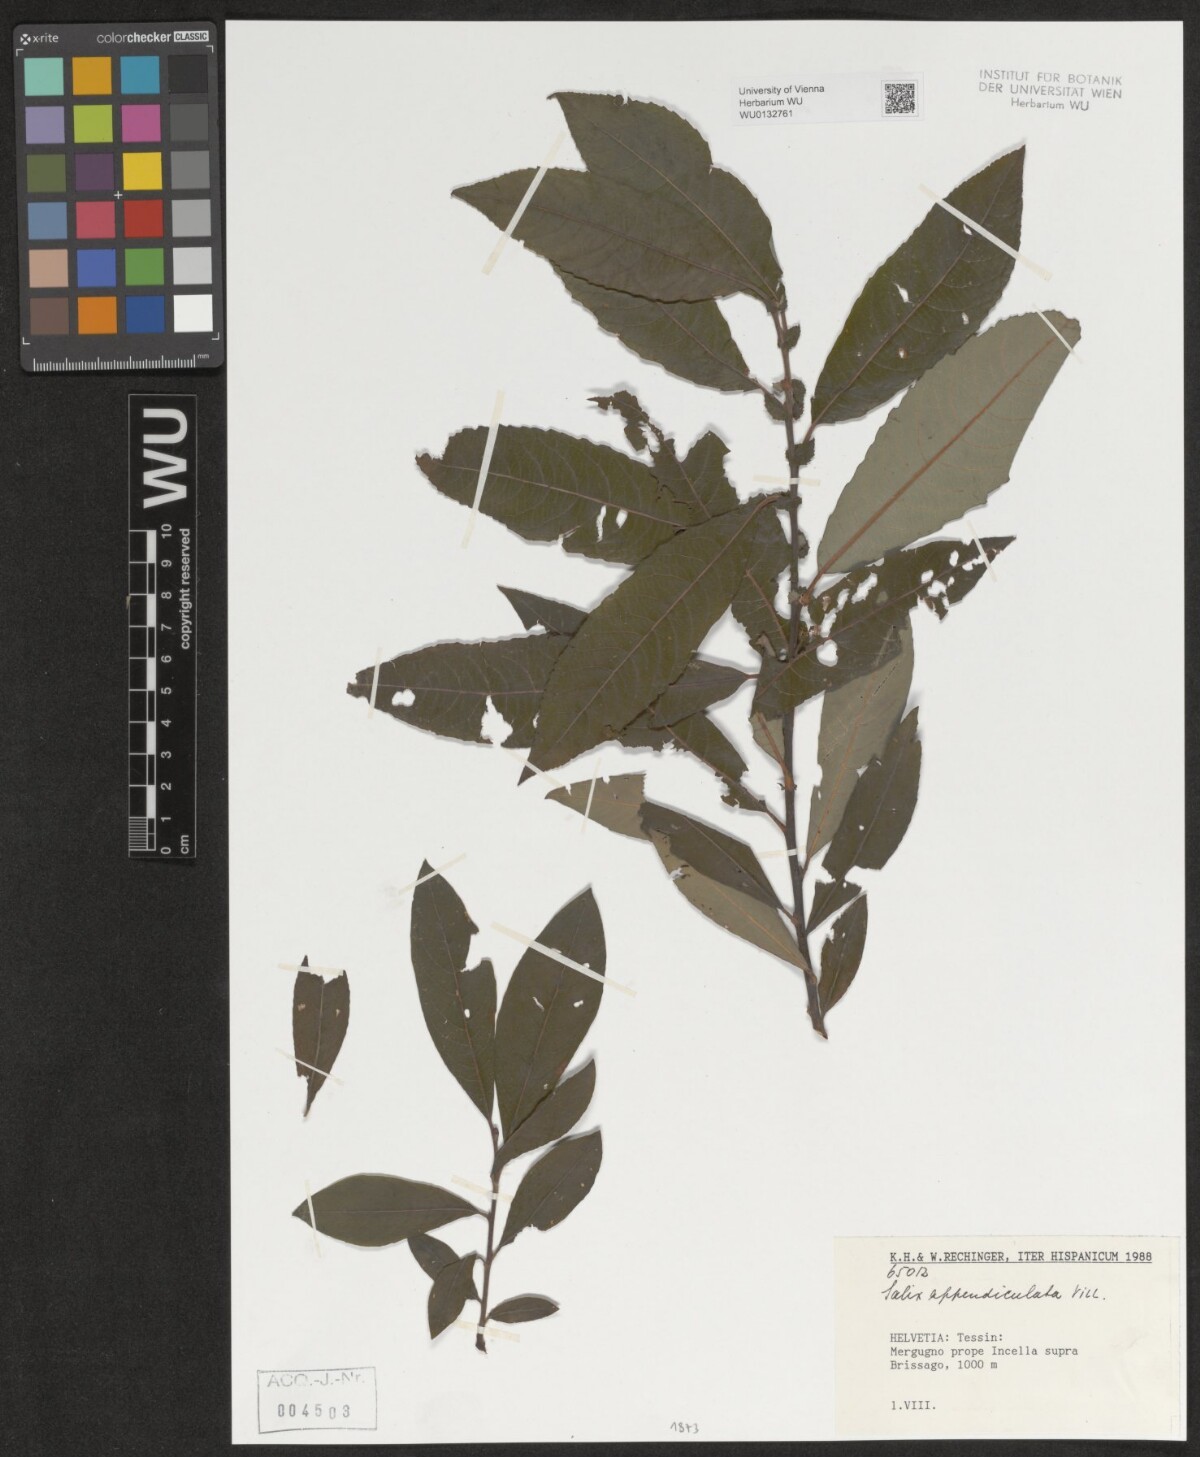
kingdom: Plantae
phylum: Tracheophyta
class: Magnoliopsida
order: Malpighiales
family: Salicaceae
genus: Salix
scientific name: Salix appendiculata
